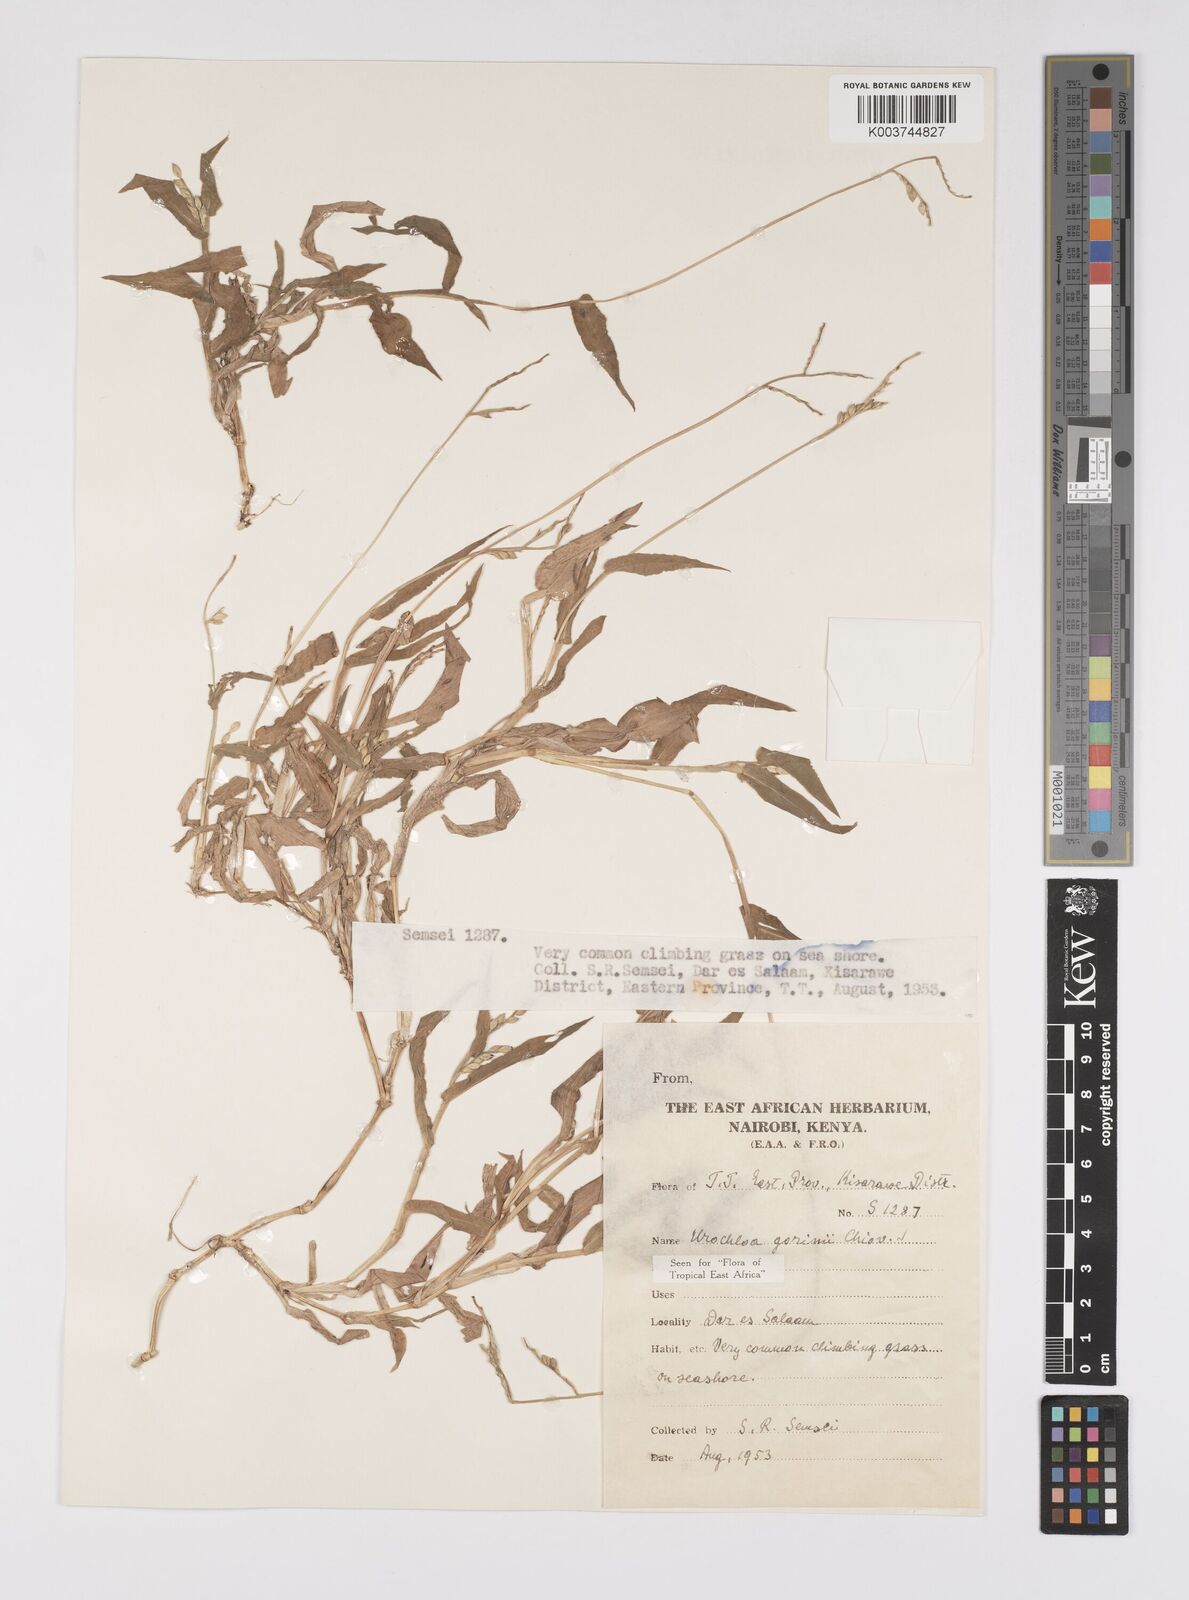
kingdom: Plantae
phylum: Tracheophyta
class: Liliopsida
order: Poales
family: Poaceae
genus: Urochloa
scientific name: Urochloa rudis
